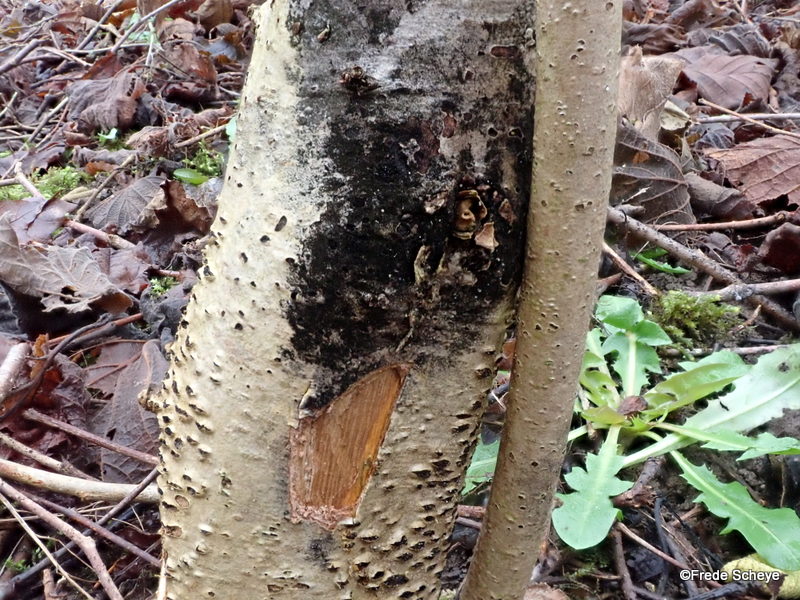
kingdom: Fungi
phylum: Ascomycota
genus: Taeniolina
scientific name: Taeniolina scripta
